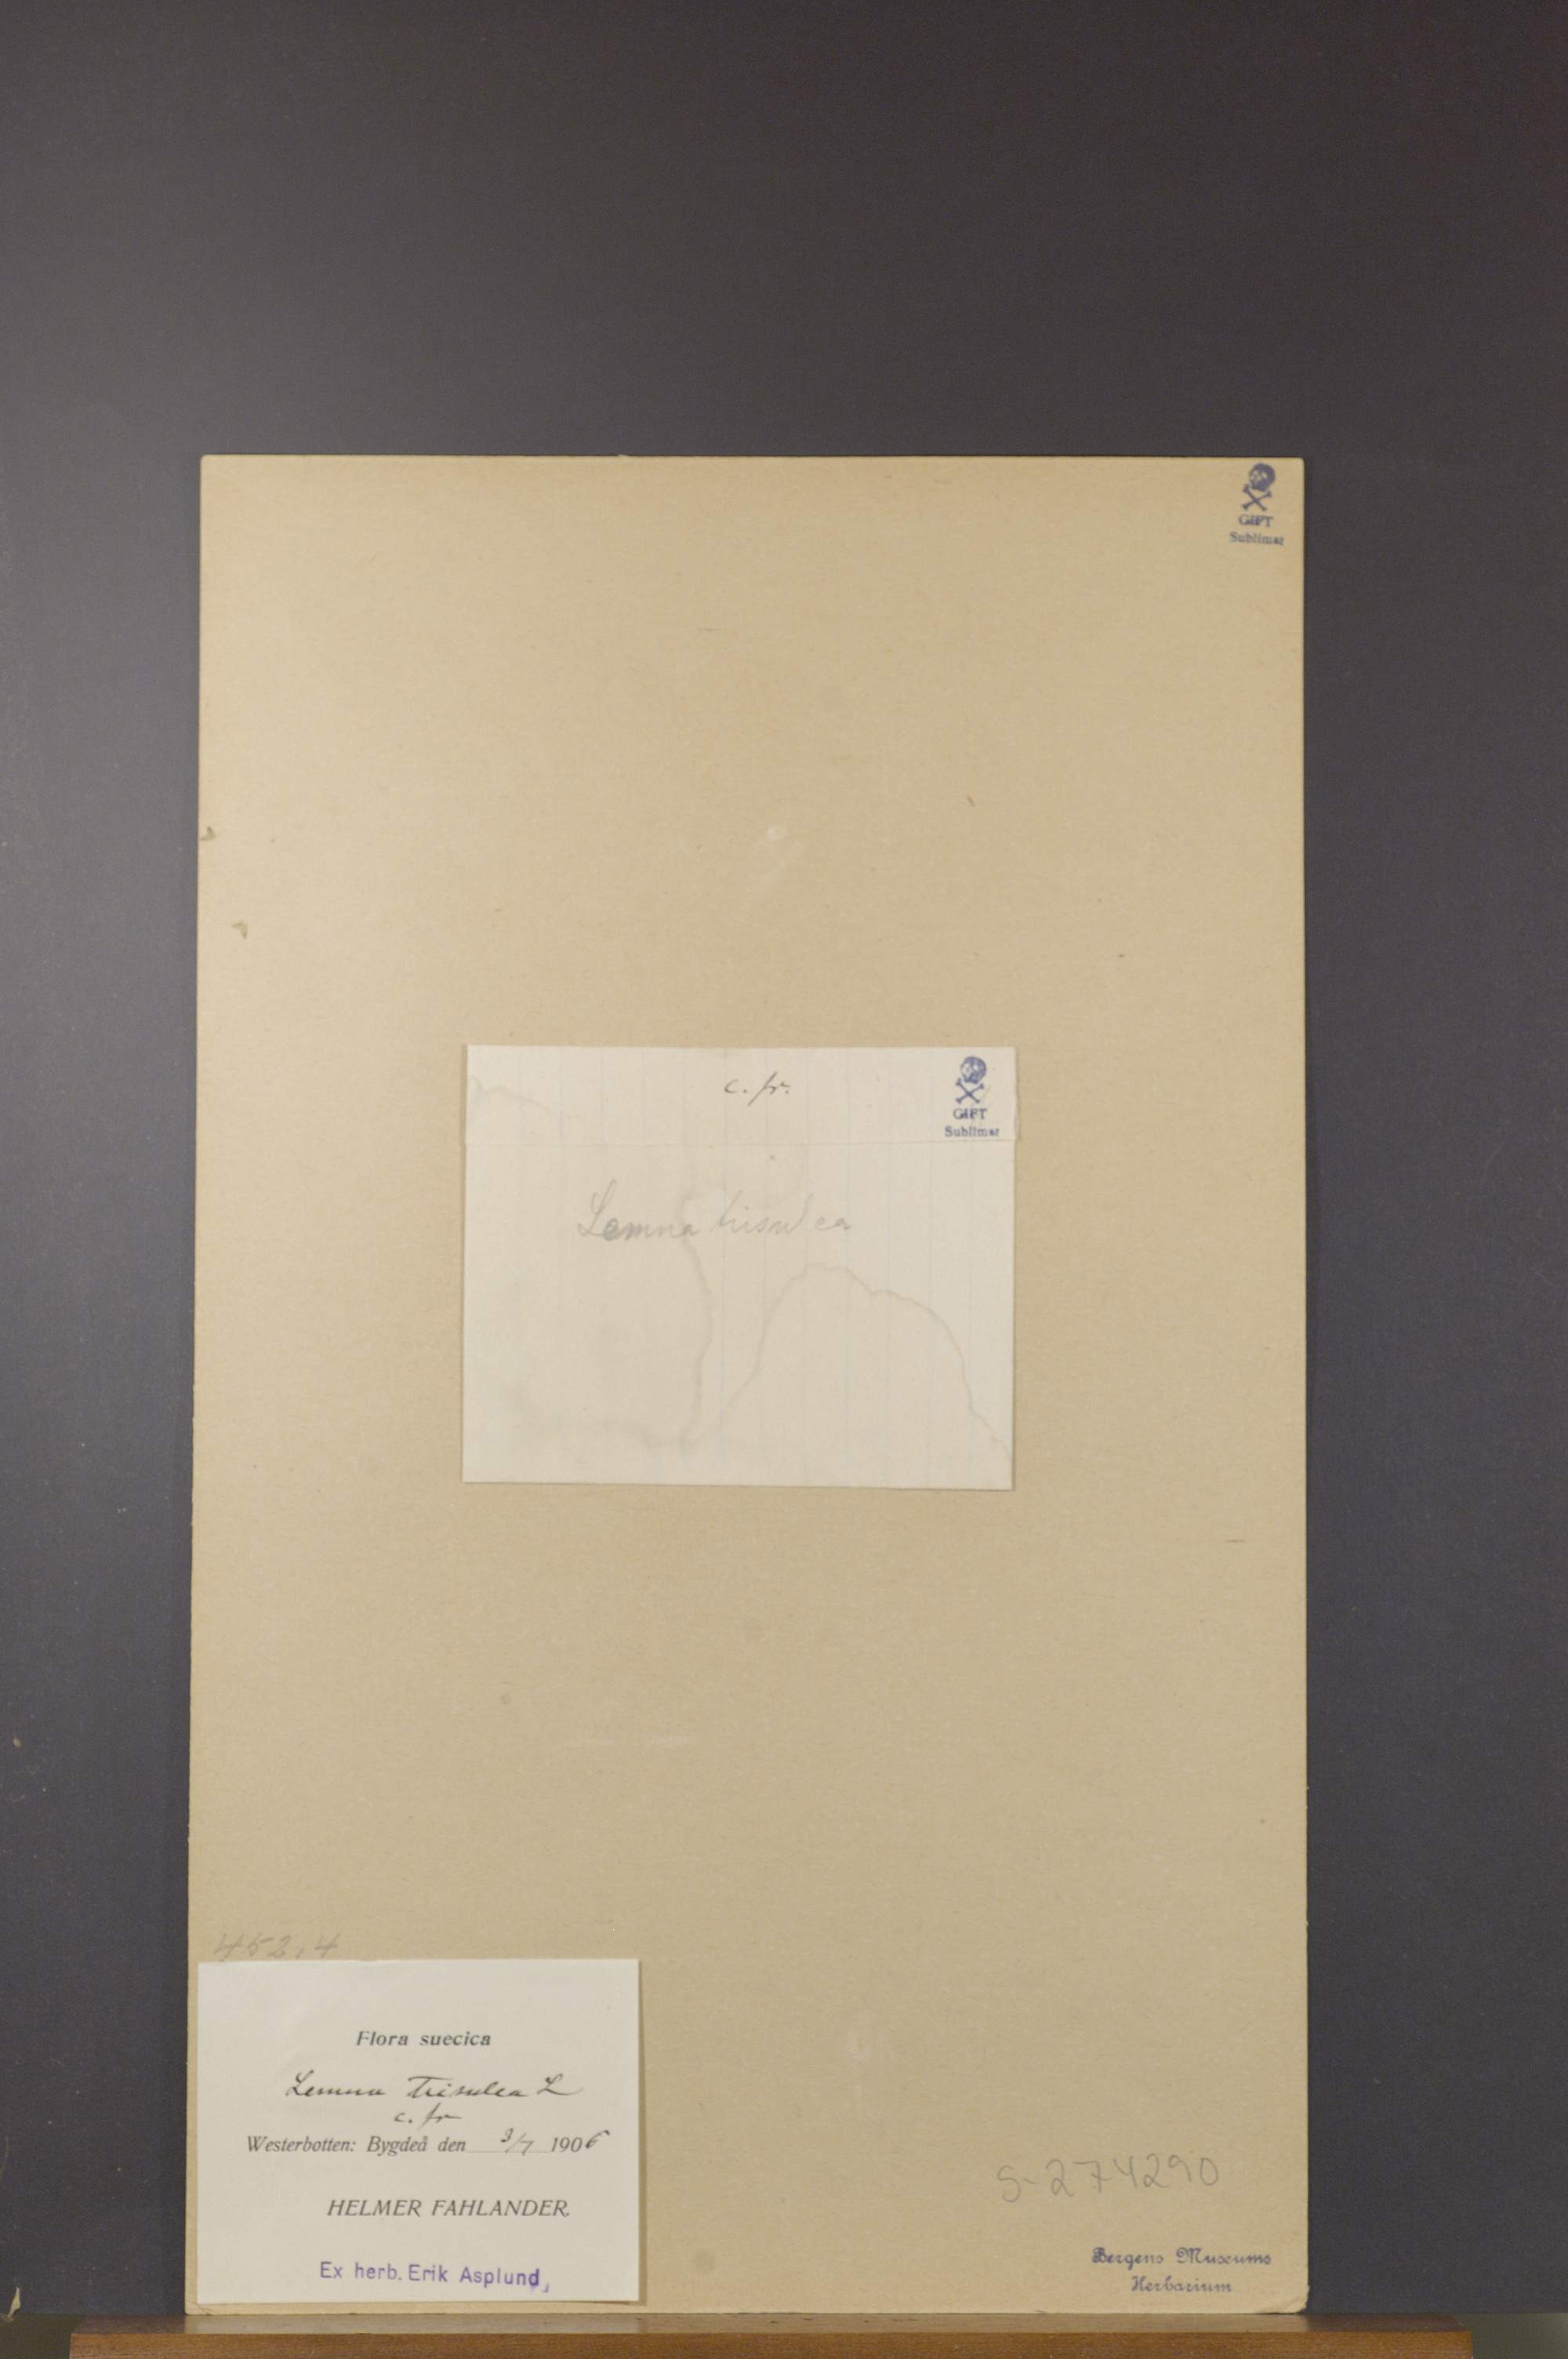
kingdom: Plantae
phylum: Tracheophyta
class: Liliopsida
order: Alismatales
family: Araceae
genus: Lemna
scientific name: Lemna trisulca
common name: Ivy-leaved duckweed
